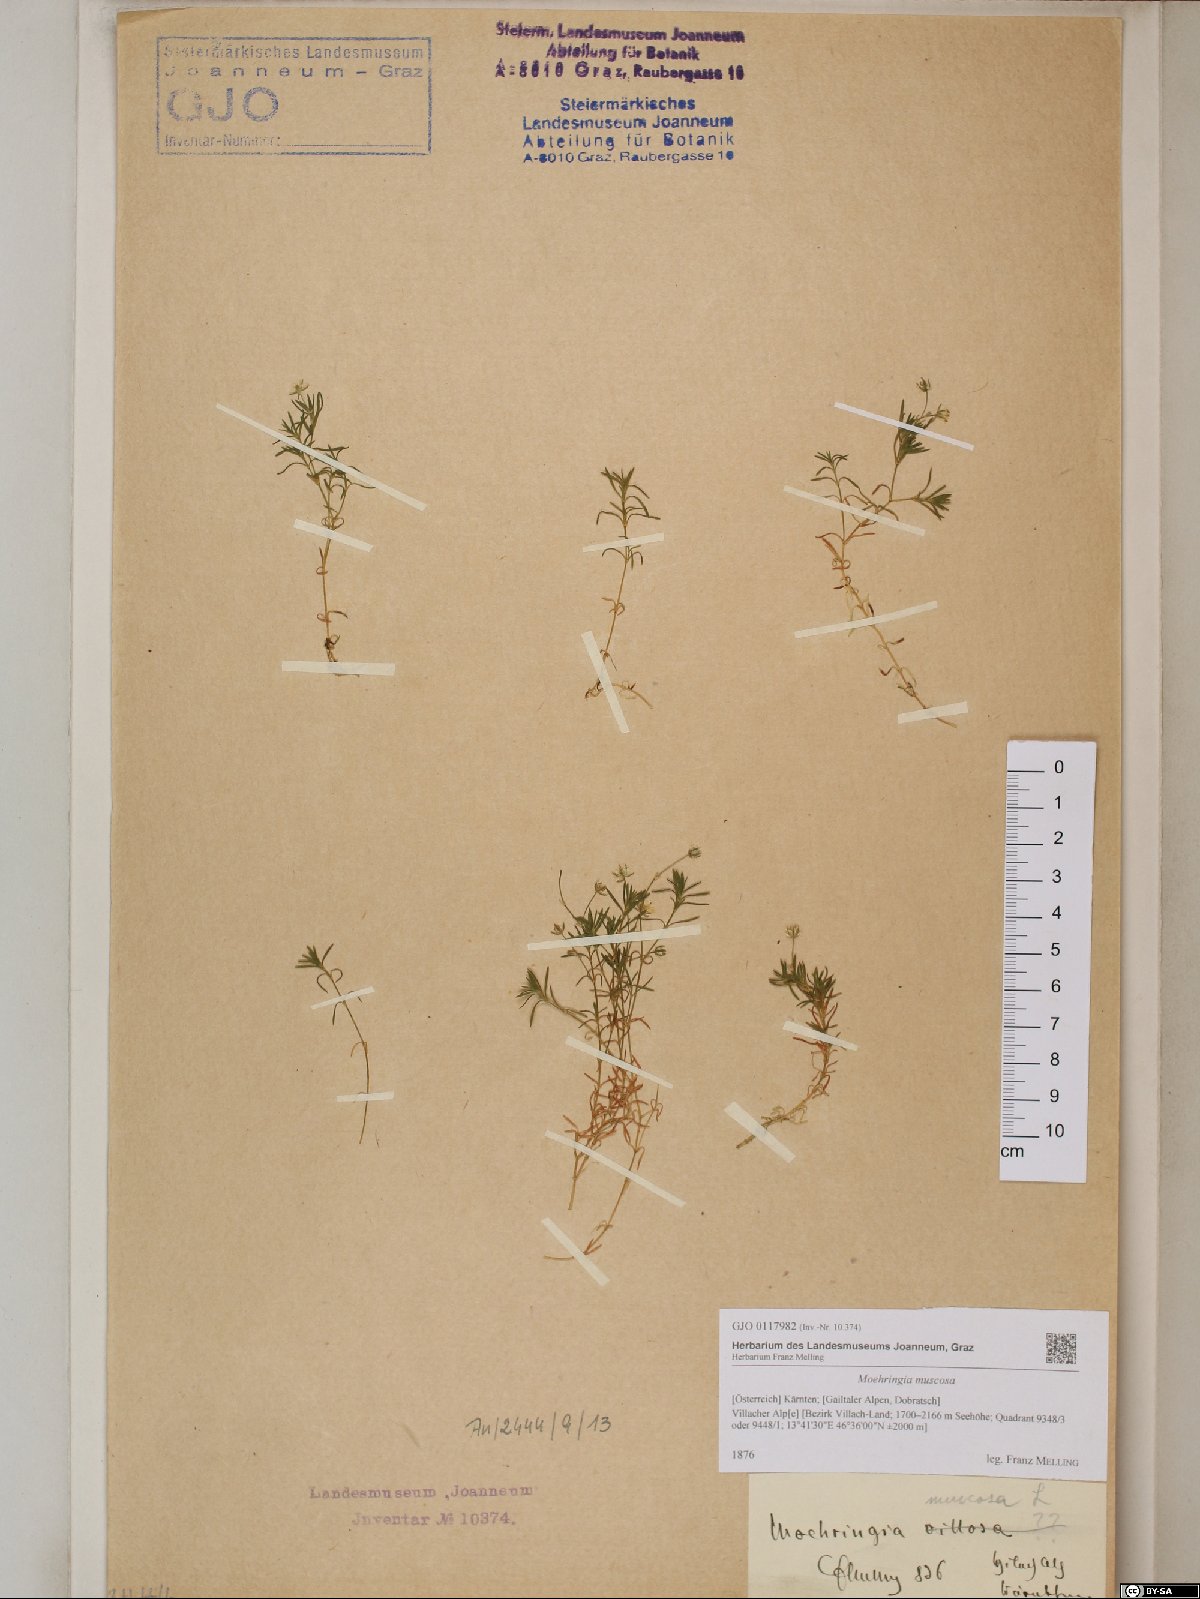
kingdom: Plantae
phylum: Tracheophyta
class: Magnoliopsida
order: Caryophyllales
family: Caryophyllaceae
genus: Moehringia
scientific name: Moehringia muscosa
